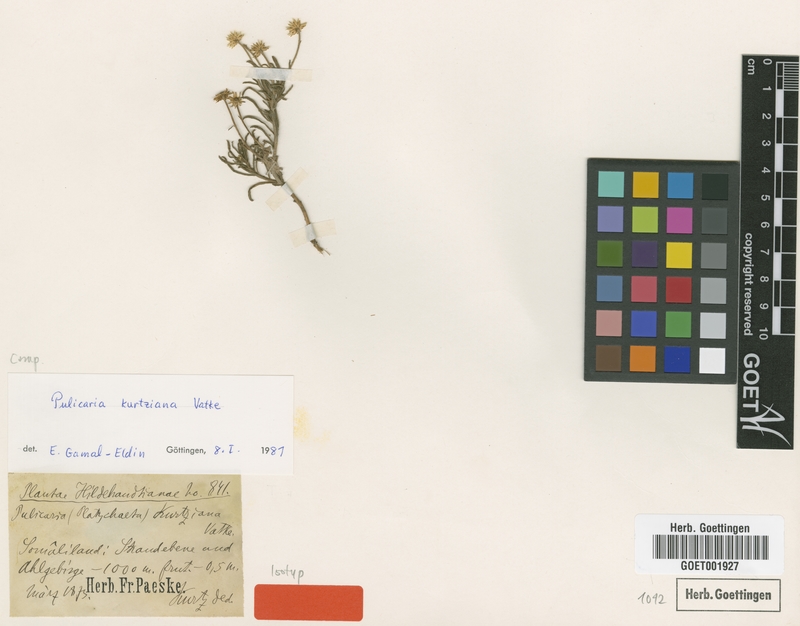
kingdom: Plantae
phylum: Tracheophyta
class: Magnoliopsida
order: Asterales
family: Asteraceae
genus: Pulicaria
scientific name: Pulicaria kurtziana
